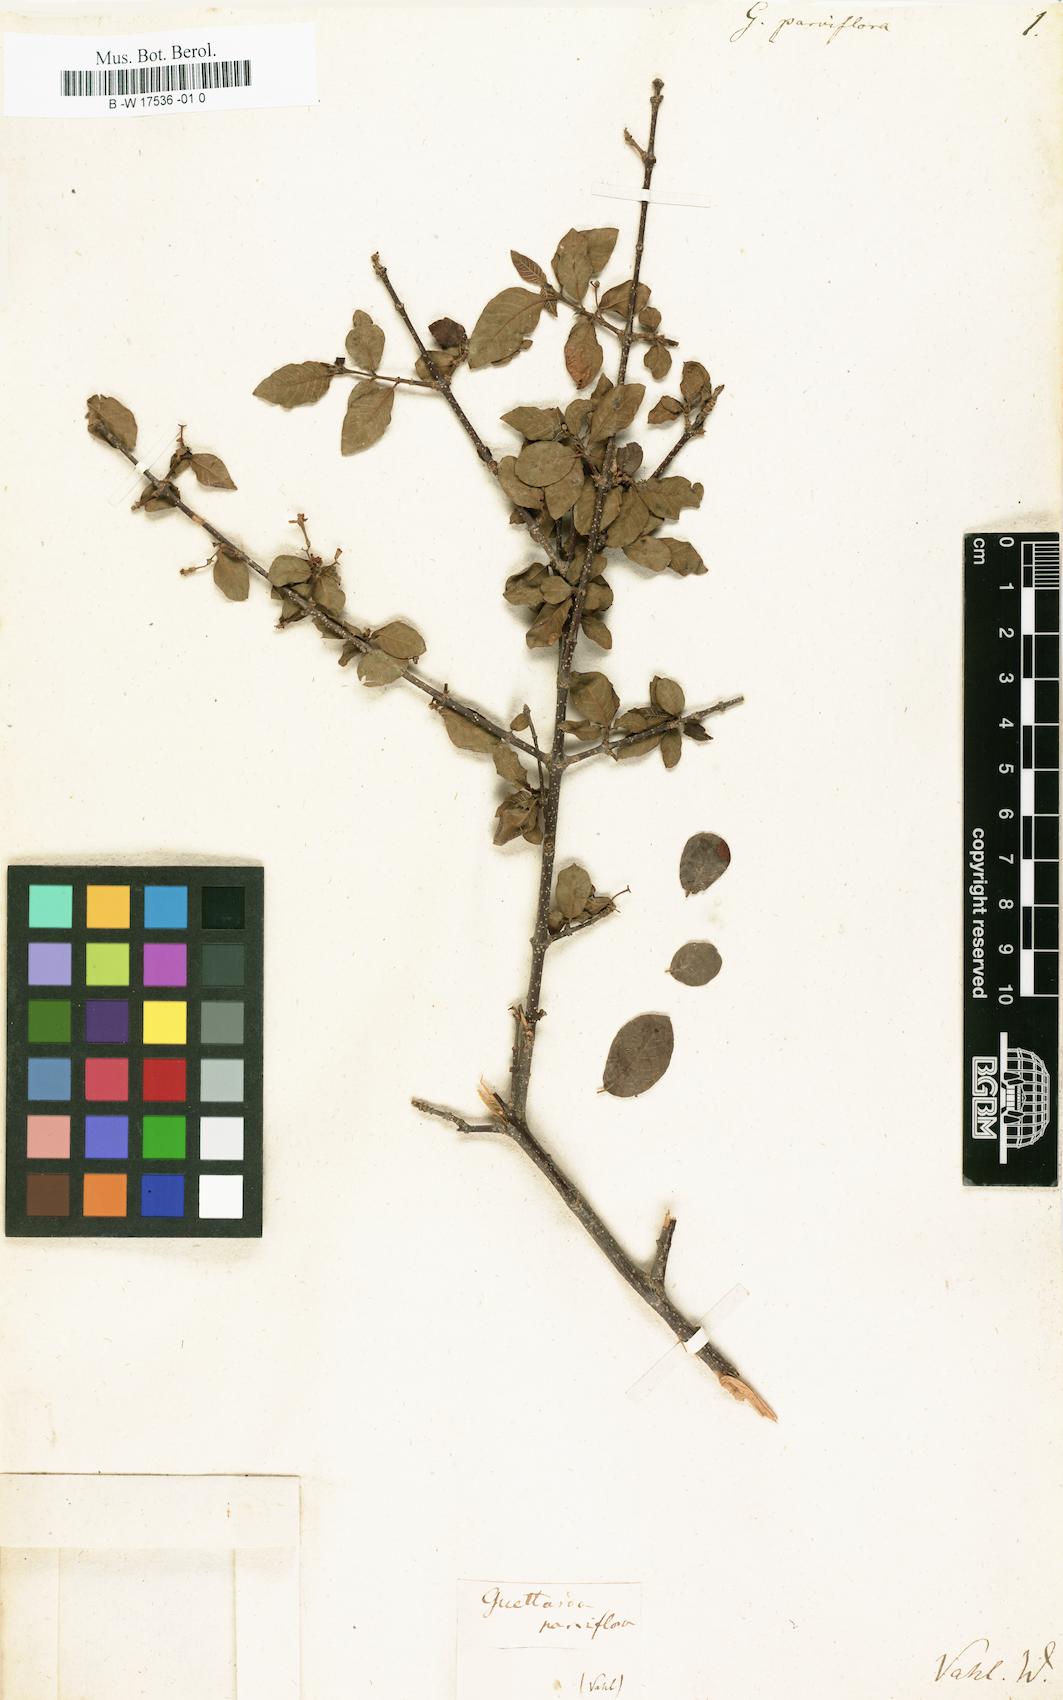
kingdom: Plantae
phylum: Tracheophyta
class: Magnoliopsida
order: Gentianales
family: Rubiaceae
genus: Guettarda
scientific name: Guettarda odorata
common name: Wild cherry
